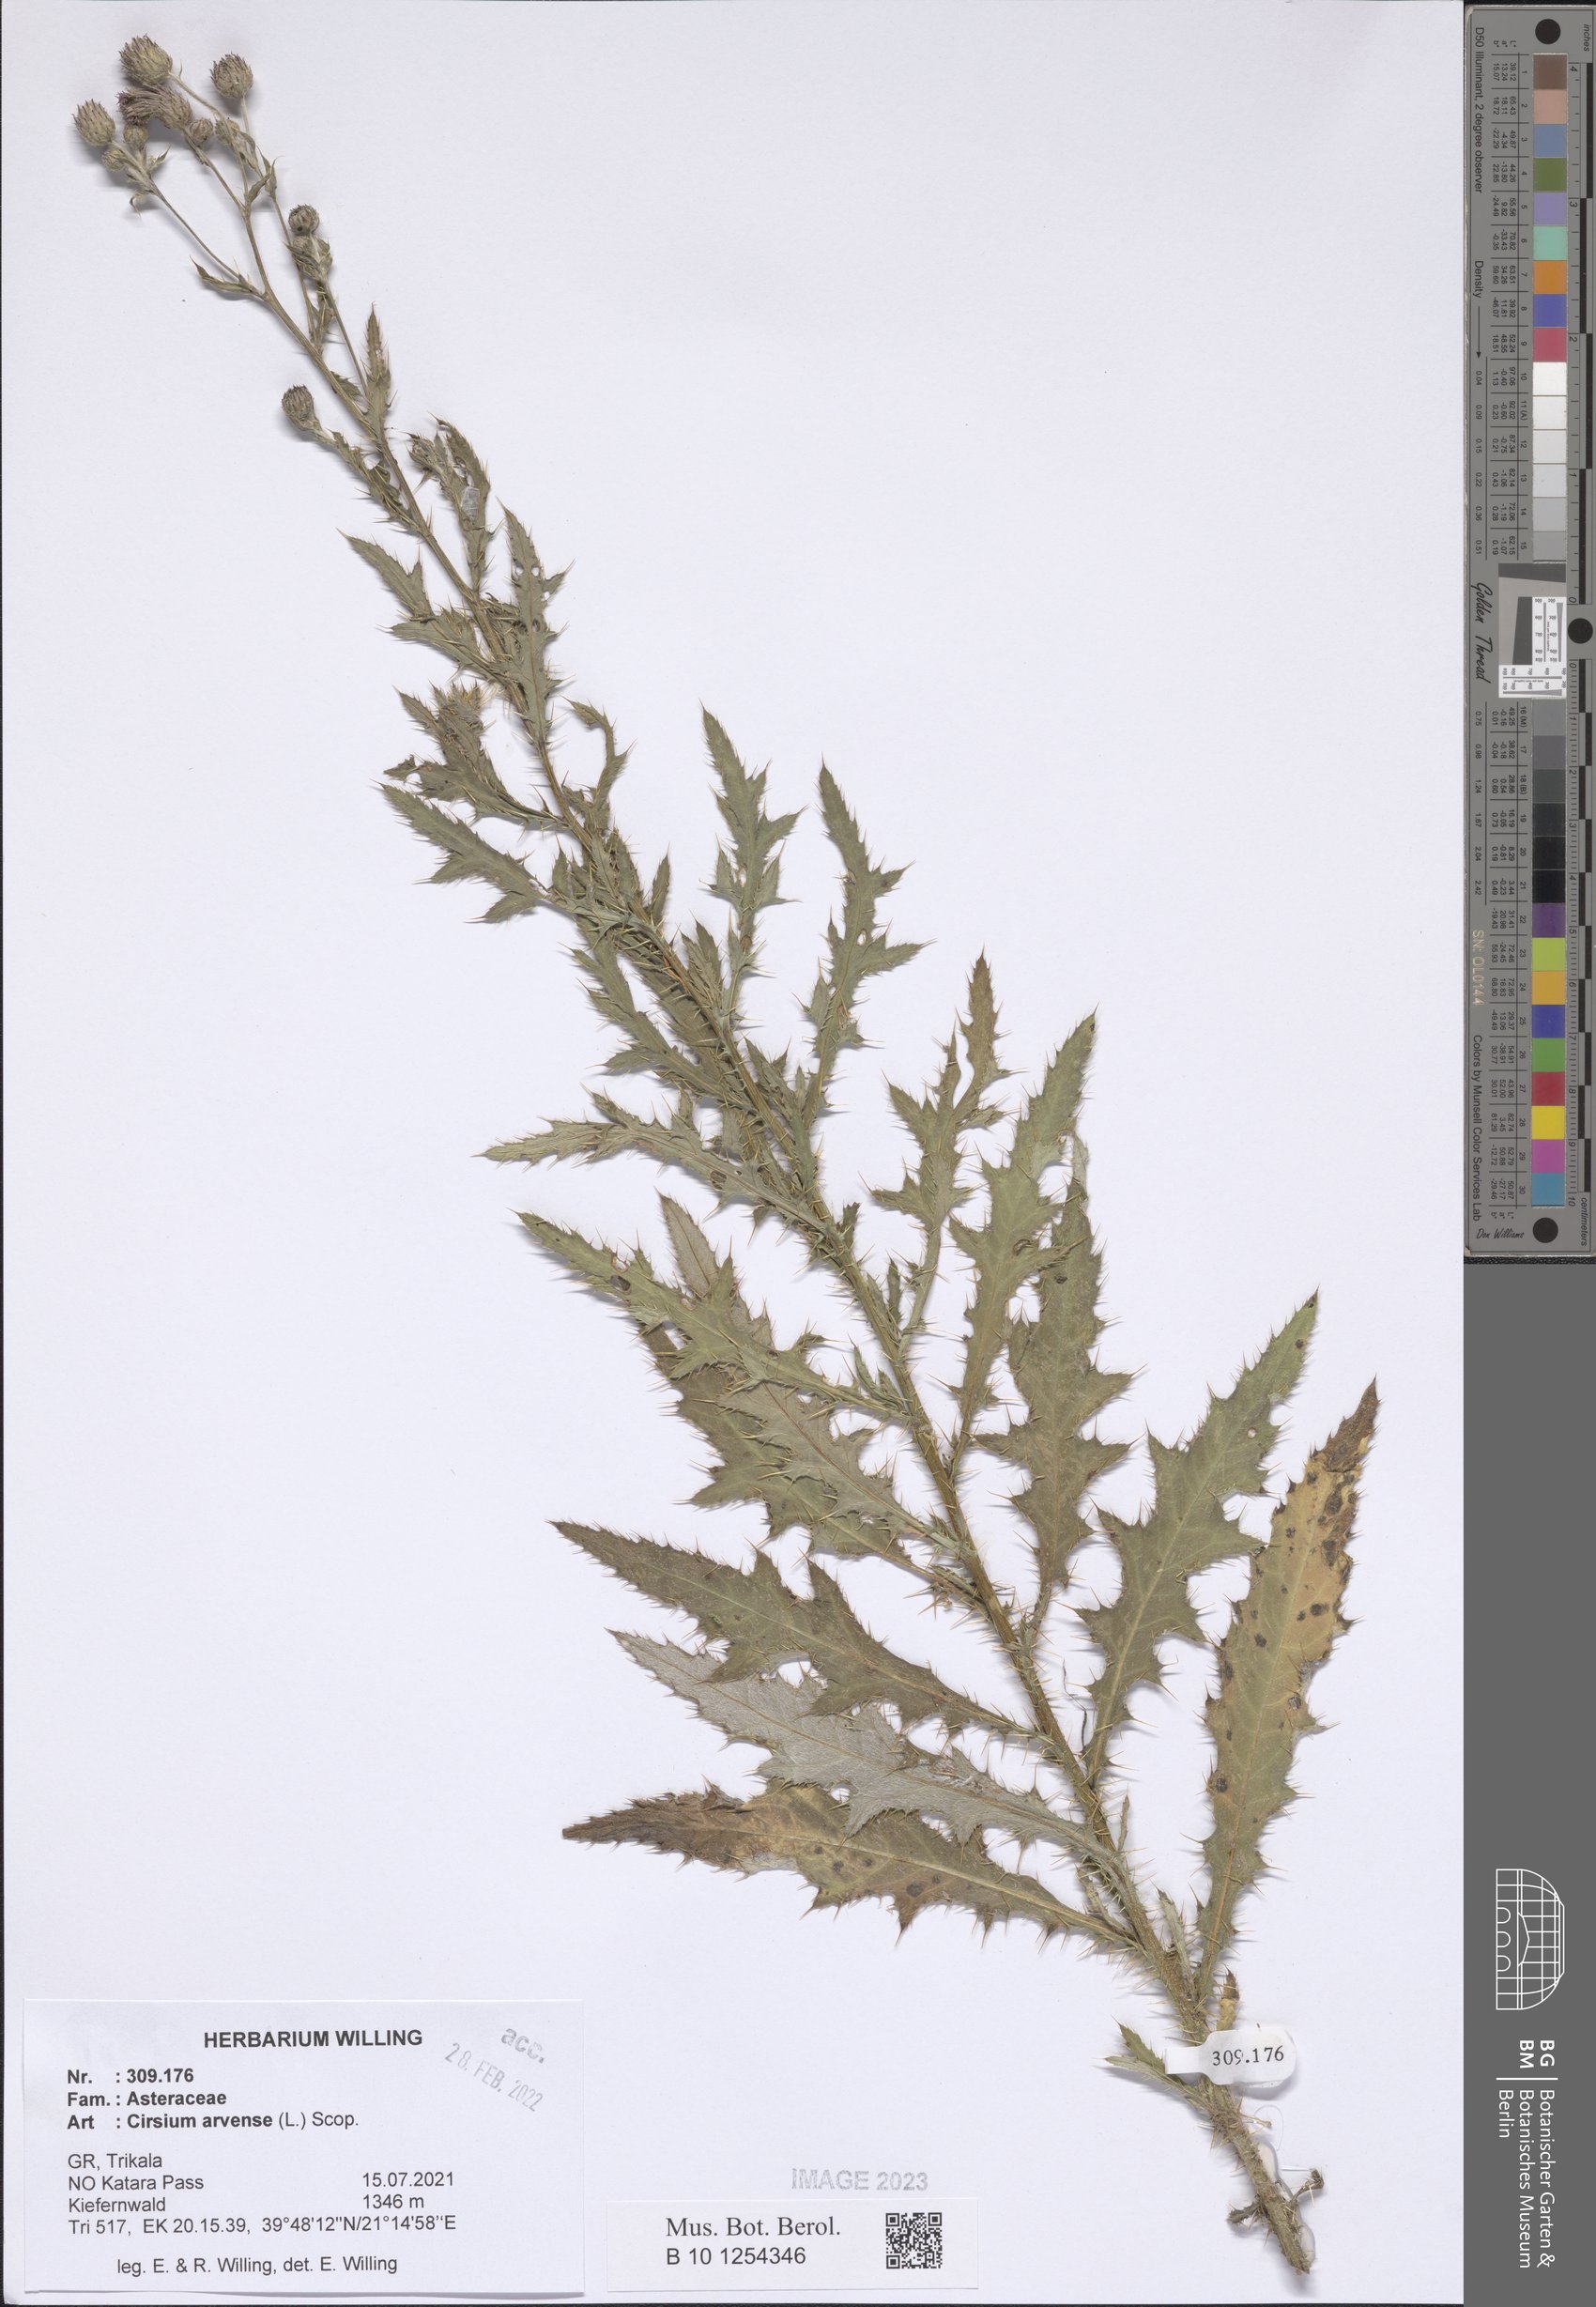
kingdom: Plantae
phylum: Tracheophyta
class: Magnoliopsida
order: Asterales
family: Asteraceae
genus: Cirsium
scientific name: Cirsium arvense
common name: Creeping thistle
